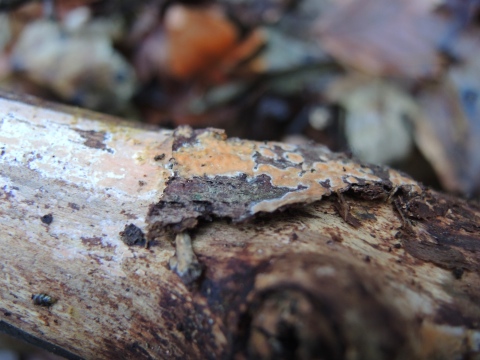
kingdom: Fungi
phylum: Basidiomycota
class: Agaricomycetes
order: Russulales
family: Peniophoraceae
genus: Peniophora
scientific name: Peniophora incarnata
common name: laksefarvet voksskind
